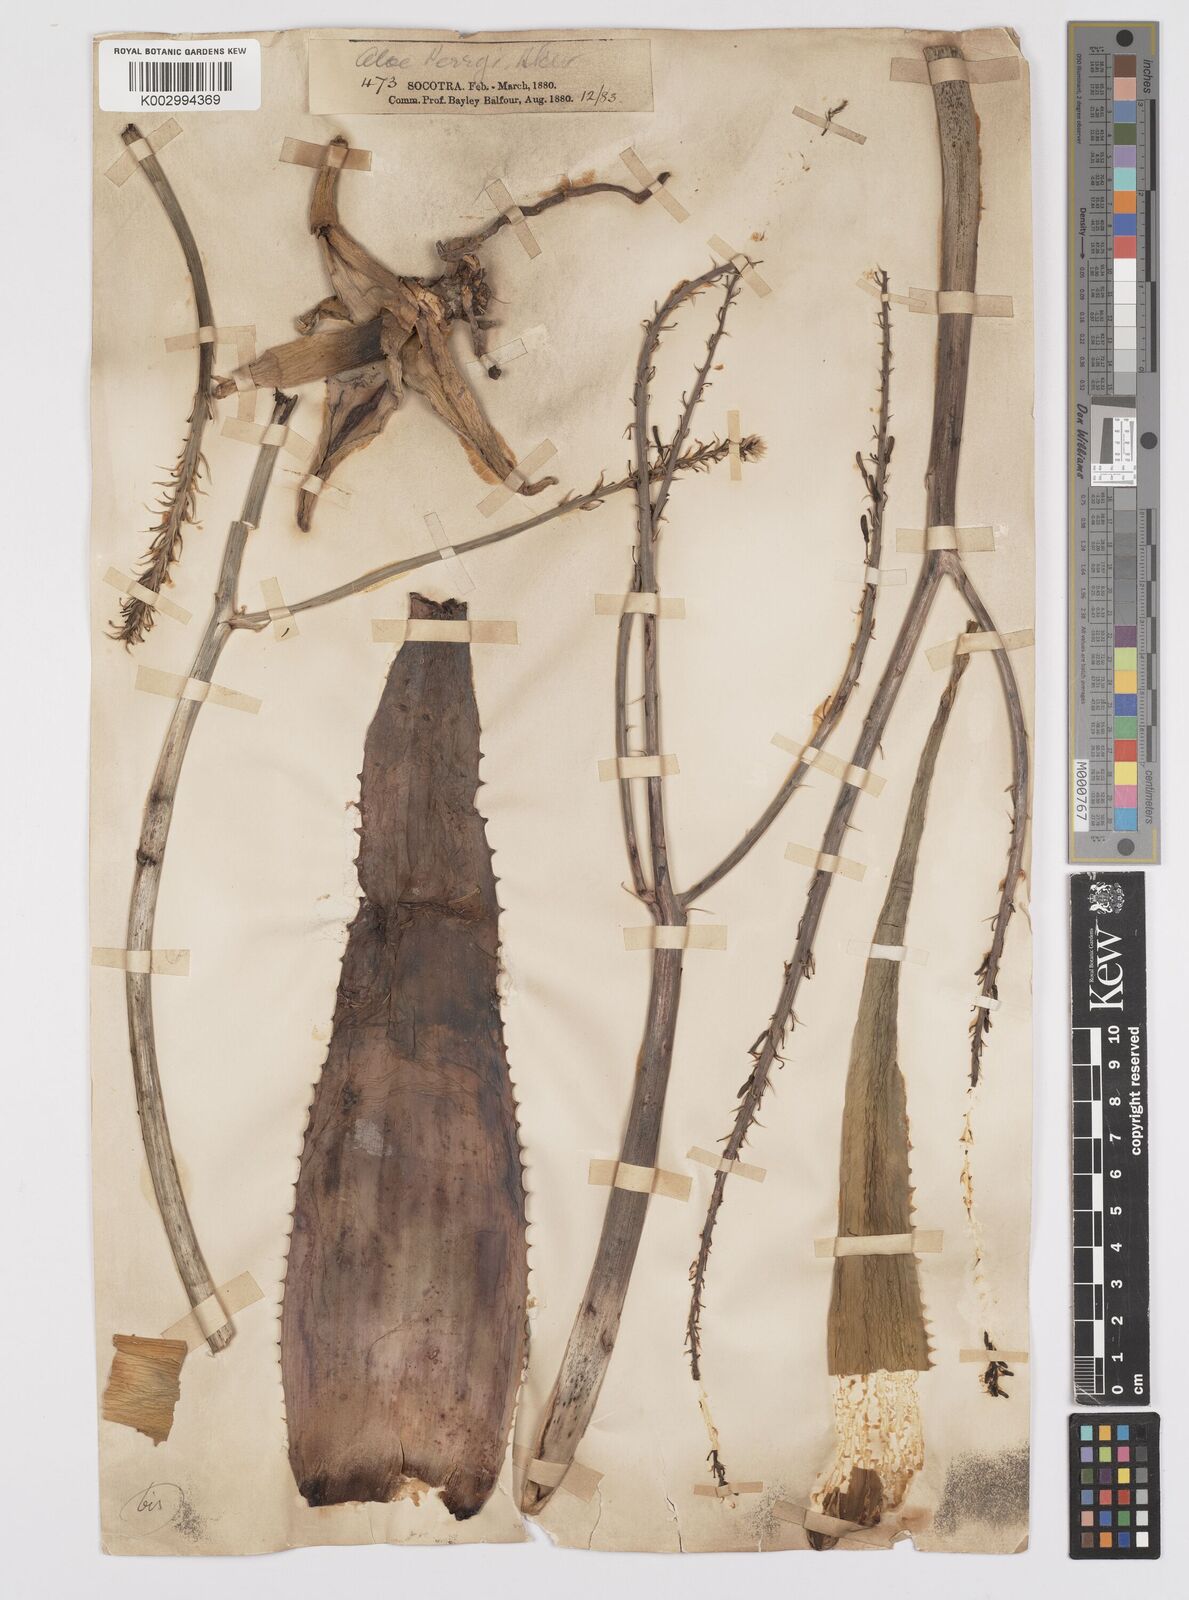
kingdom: Plantae
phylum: Tracheophyta
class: Liliopsida
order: Asparagales
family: Asphodelaceae
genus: Aloe
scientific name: Aloe perryi
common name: Socotrine aloe
